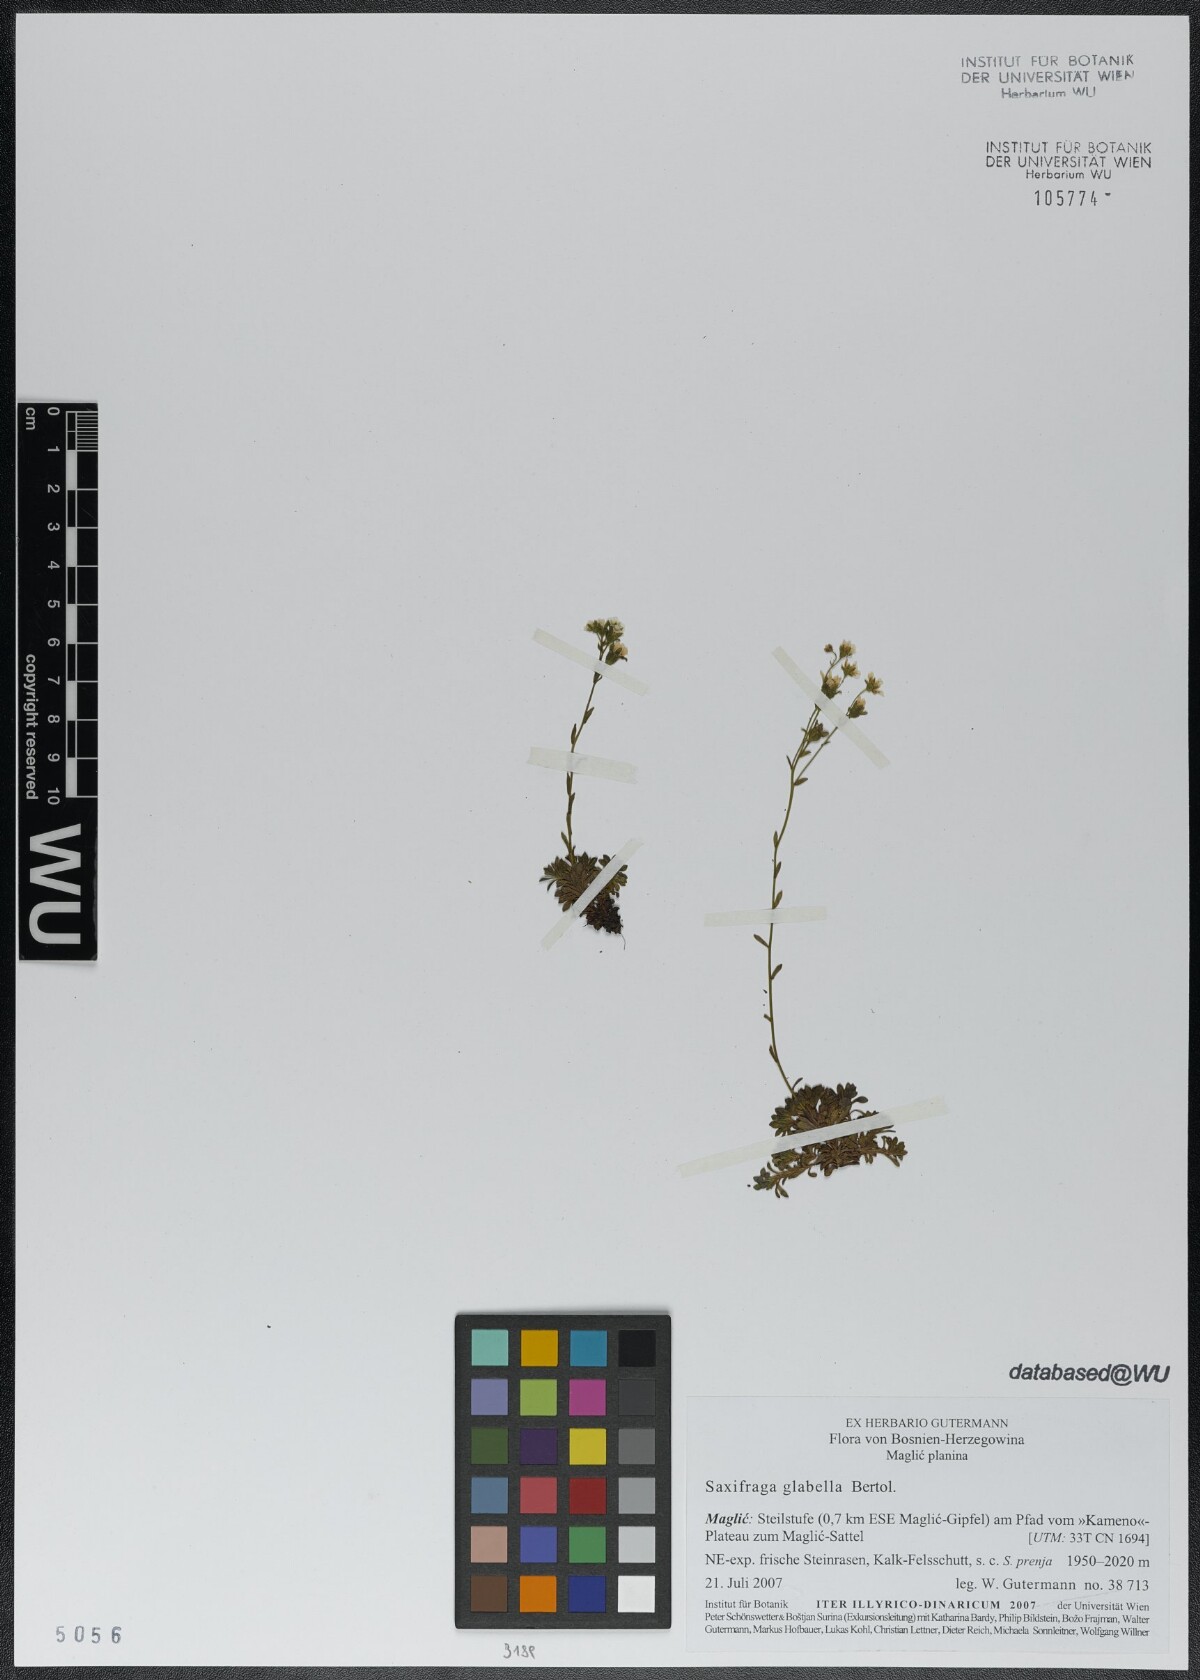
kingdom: Plantae
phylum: Tracheophyta
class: Magnoliopsida
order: Saxifragales
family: Saxifragaceae
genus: Saxifraga
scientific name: Saxifraga glabella
